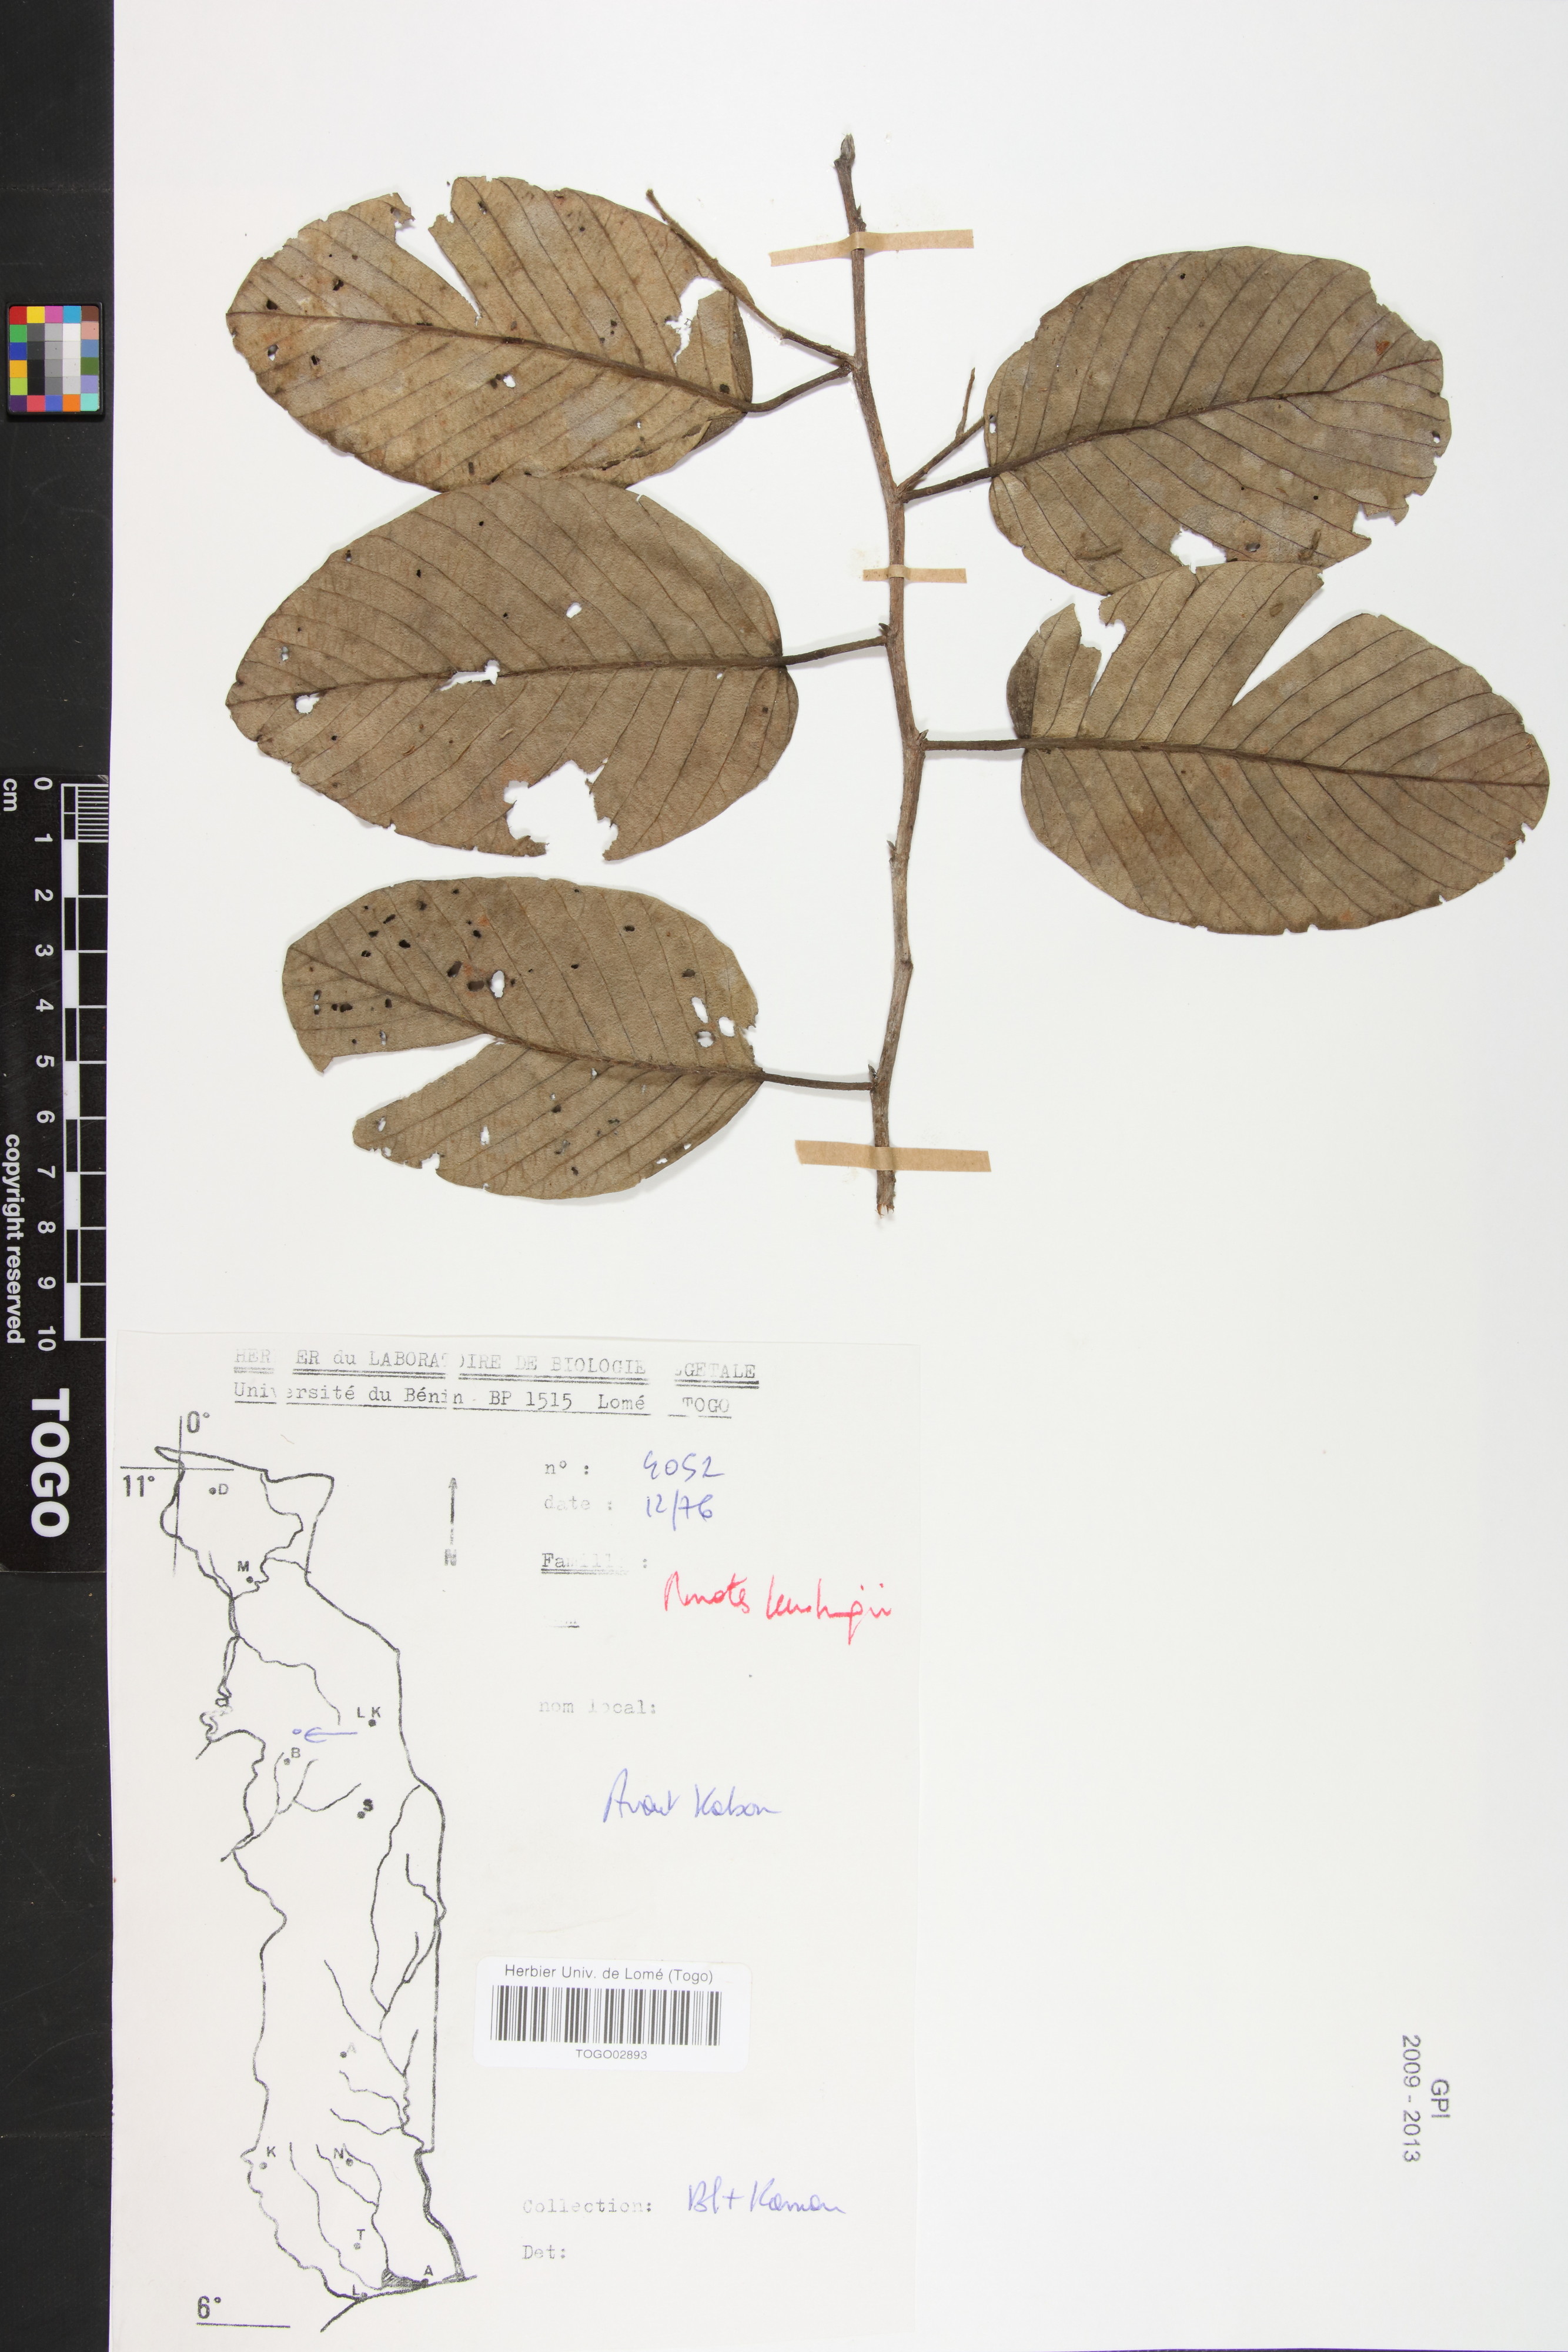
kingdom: Plantae
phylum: Tracheophyta
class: Magnoliopsida
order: Malvales
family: Dipterocarpaceae
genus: Monotes
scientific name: Monotes kerstingii
